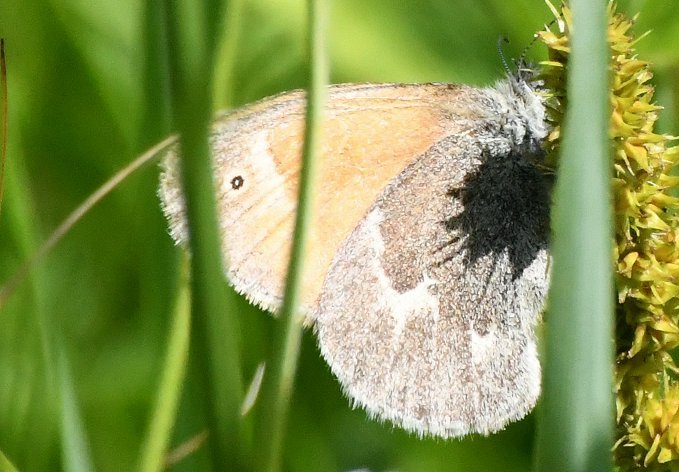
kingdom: Animalia
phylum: Arthropoda
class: Insecta
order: Lepidoptera
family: Nymphalidae
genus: Coenonympha
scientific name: Coenonympha tullia
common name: Large Heath
